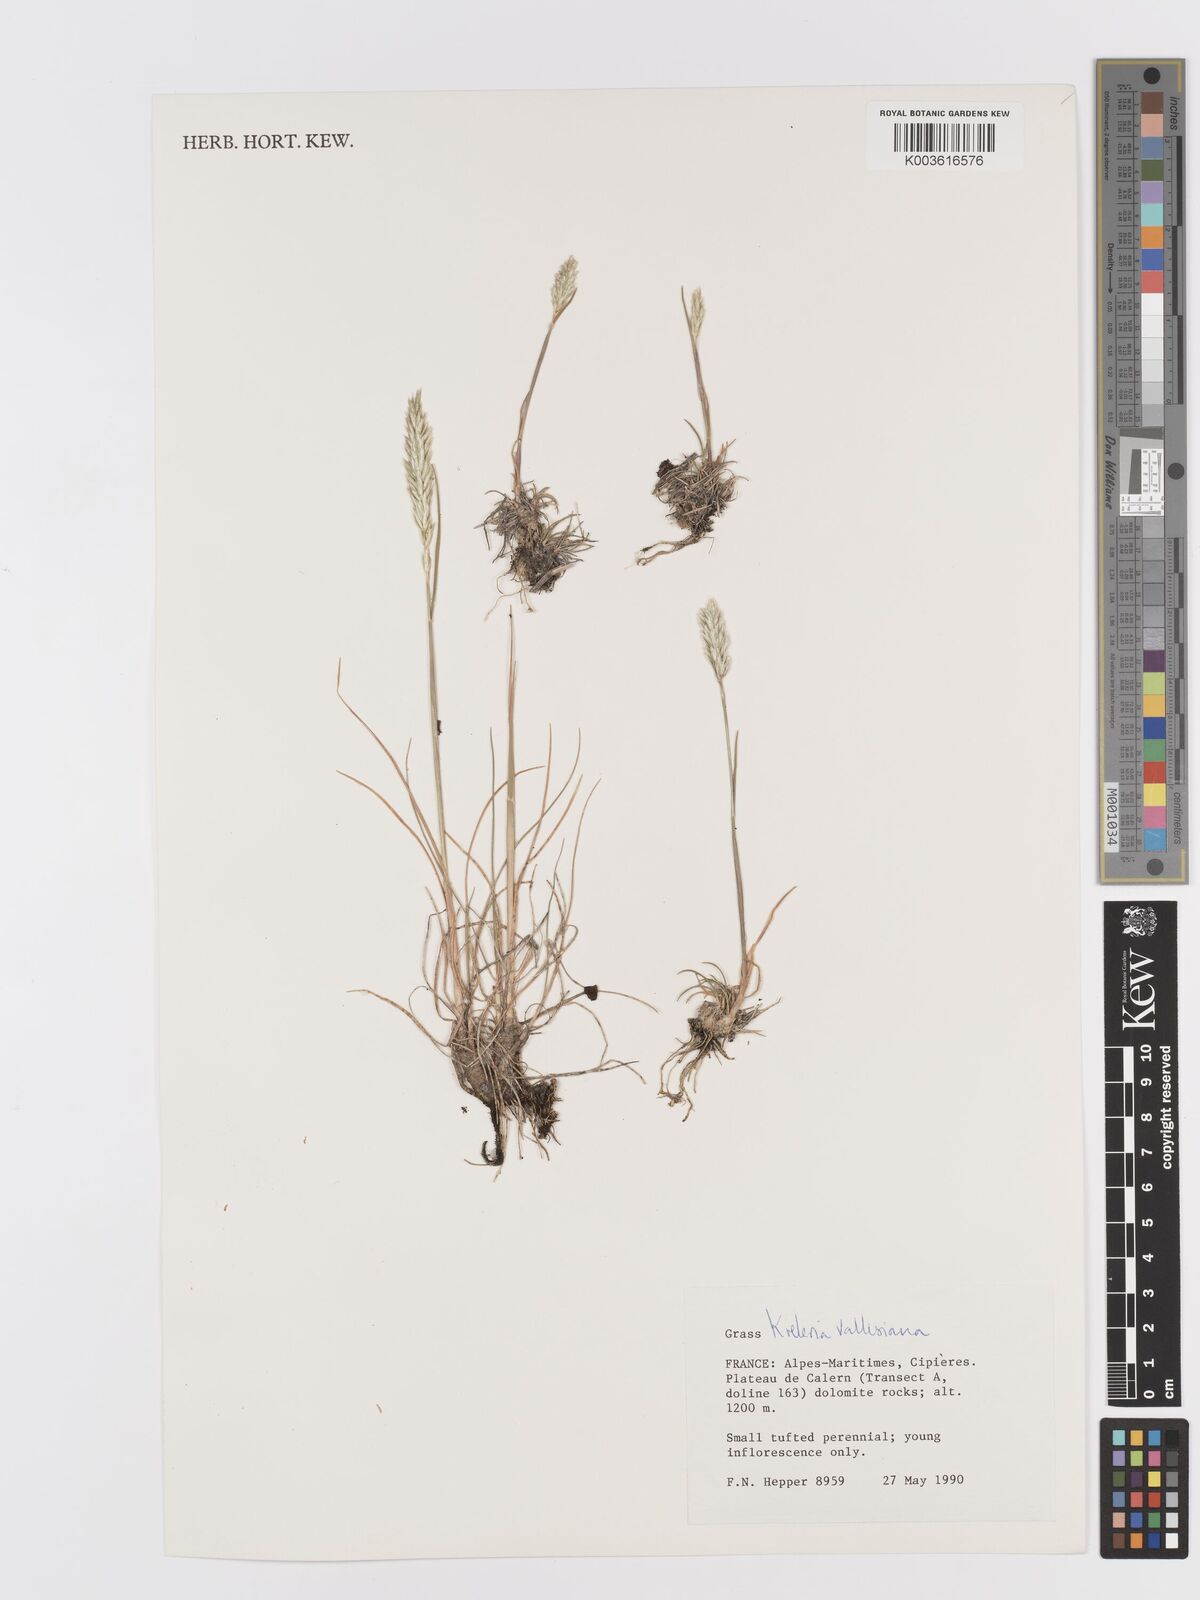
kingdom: Plantae
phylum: Tracheophyta
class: Liliopsida
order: Poales
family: Poaceae
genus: Koeleria
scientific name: Koeleria vallesiana
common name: Somerset hair-grass
